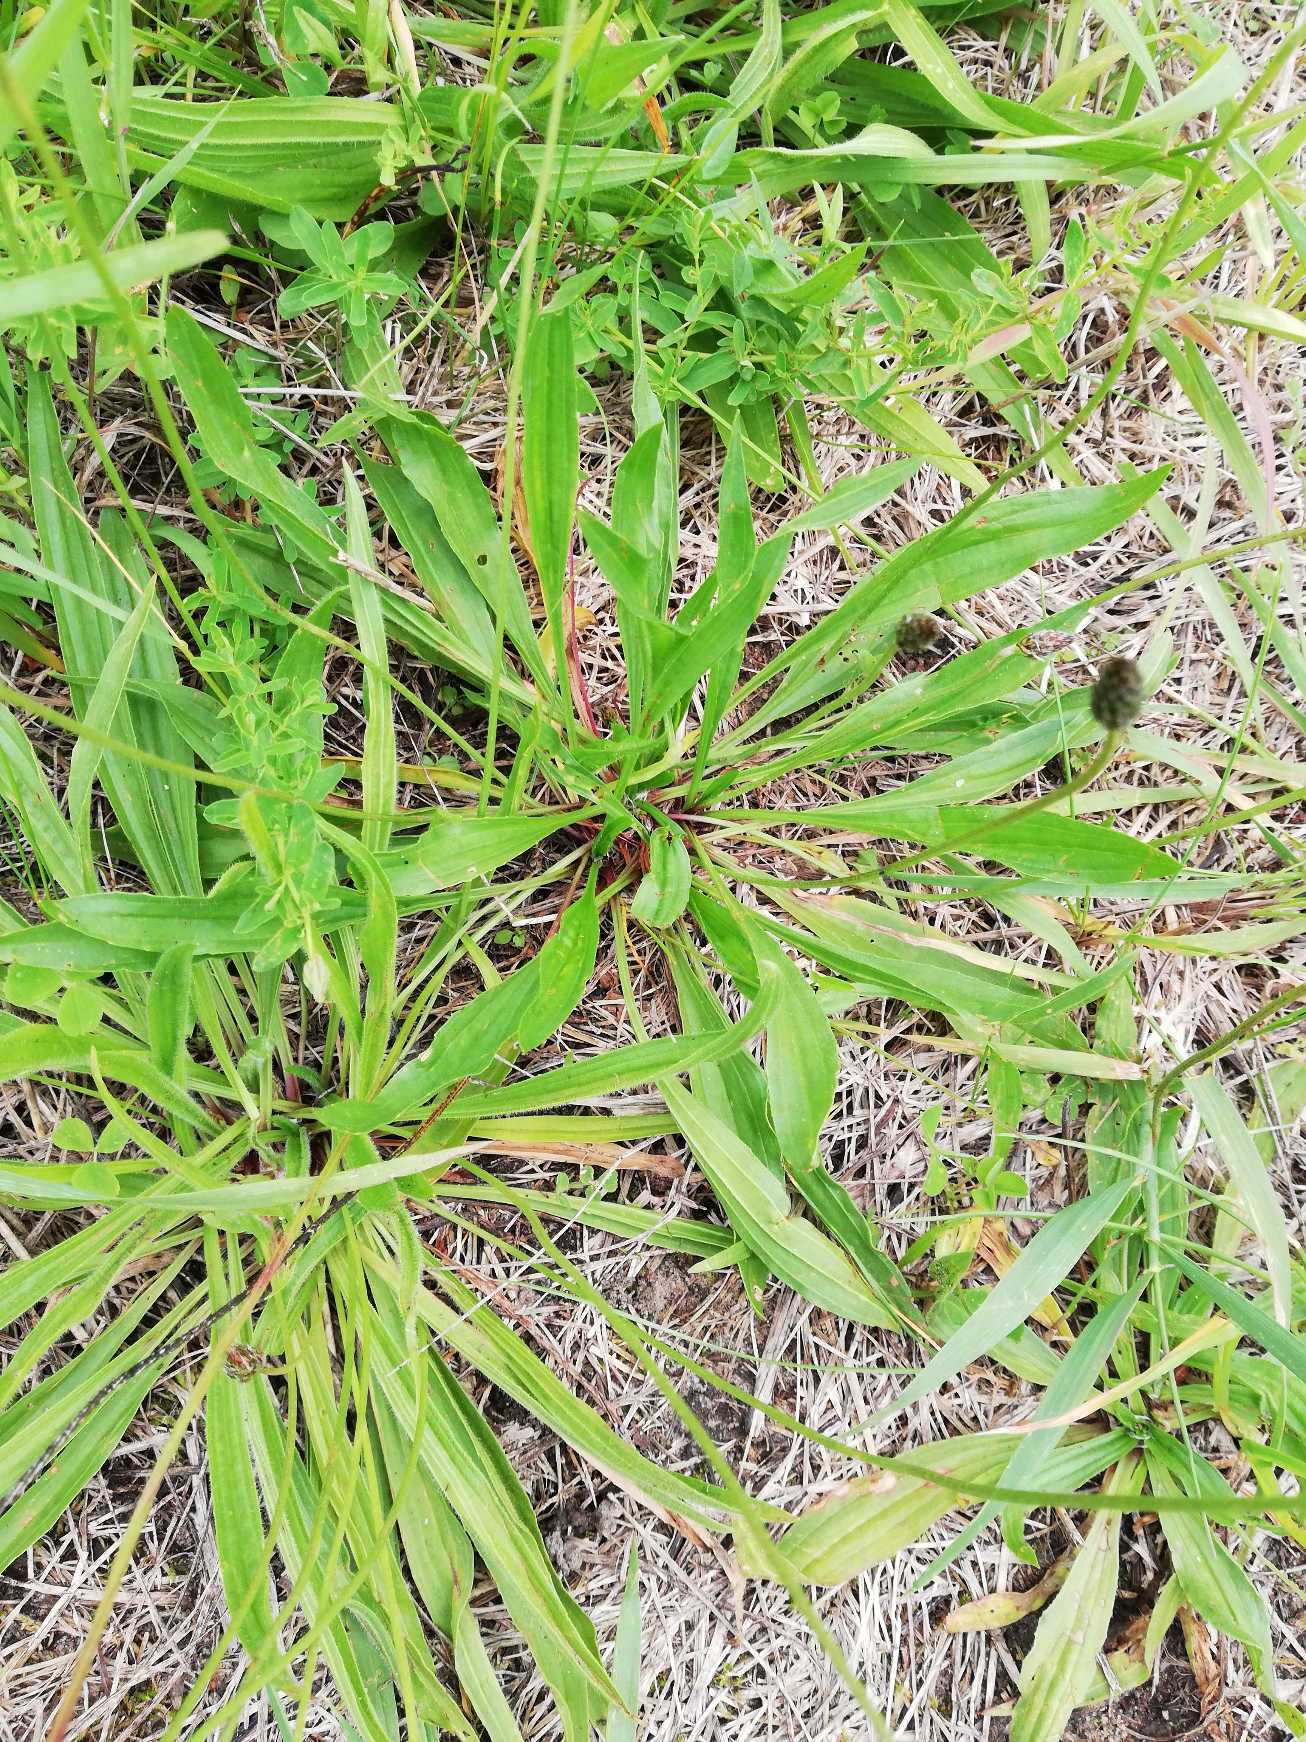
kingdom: Plantae
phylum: Tracheophyta
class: Magnoliopsida
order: Lamiales
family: Plantaginaceae
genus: Plantago
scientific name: Plantago lanceolata
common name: Lancet-vejbred
